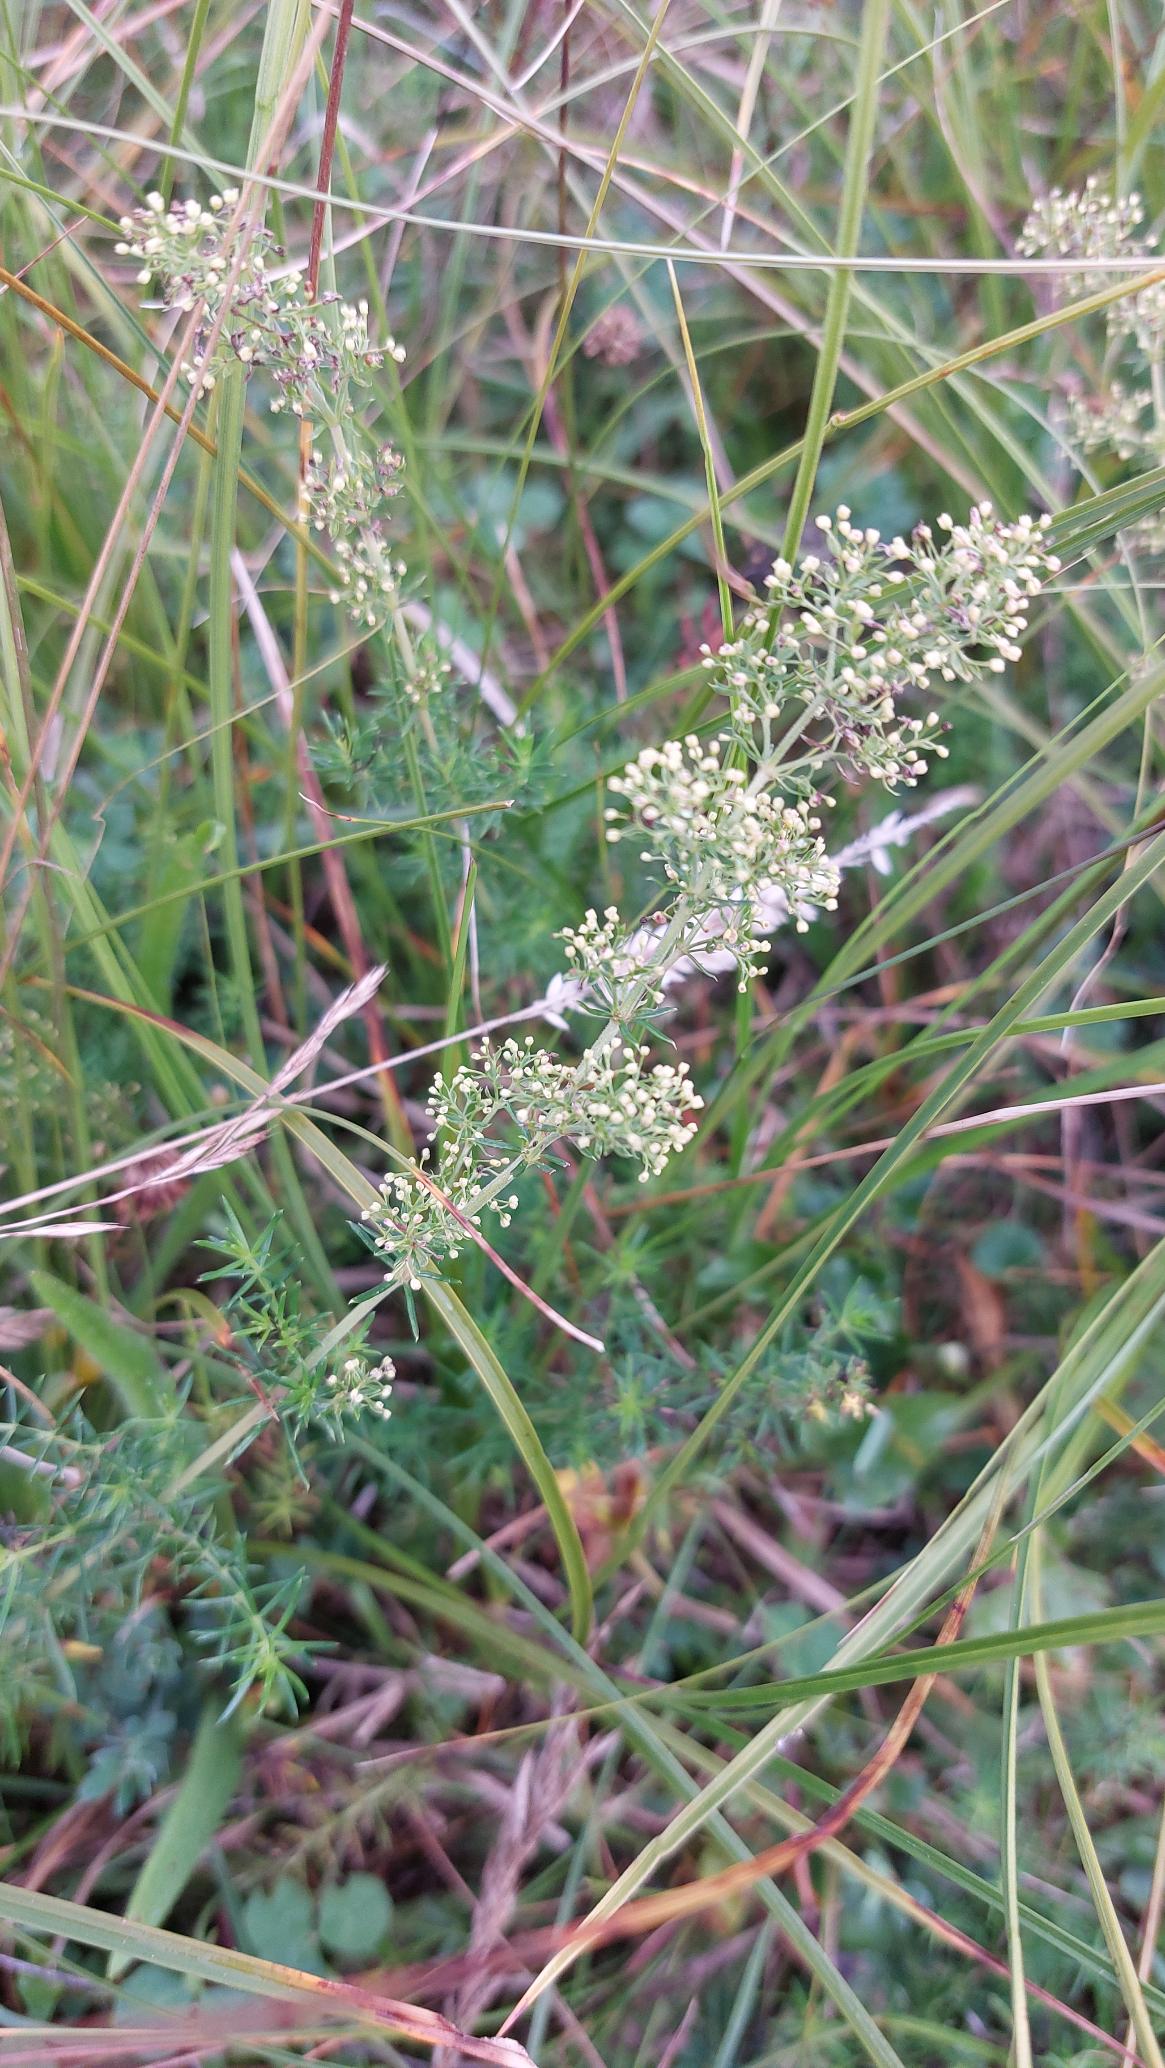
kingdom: Plantae
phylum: Tracheophyta
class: Magnoliopsida
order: Gentianales
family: Rubiaceae
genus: Galium
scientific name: Galium
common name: Snerreslægten
